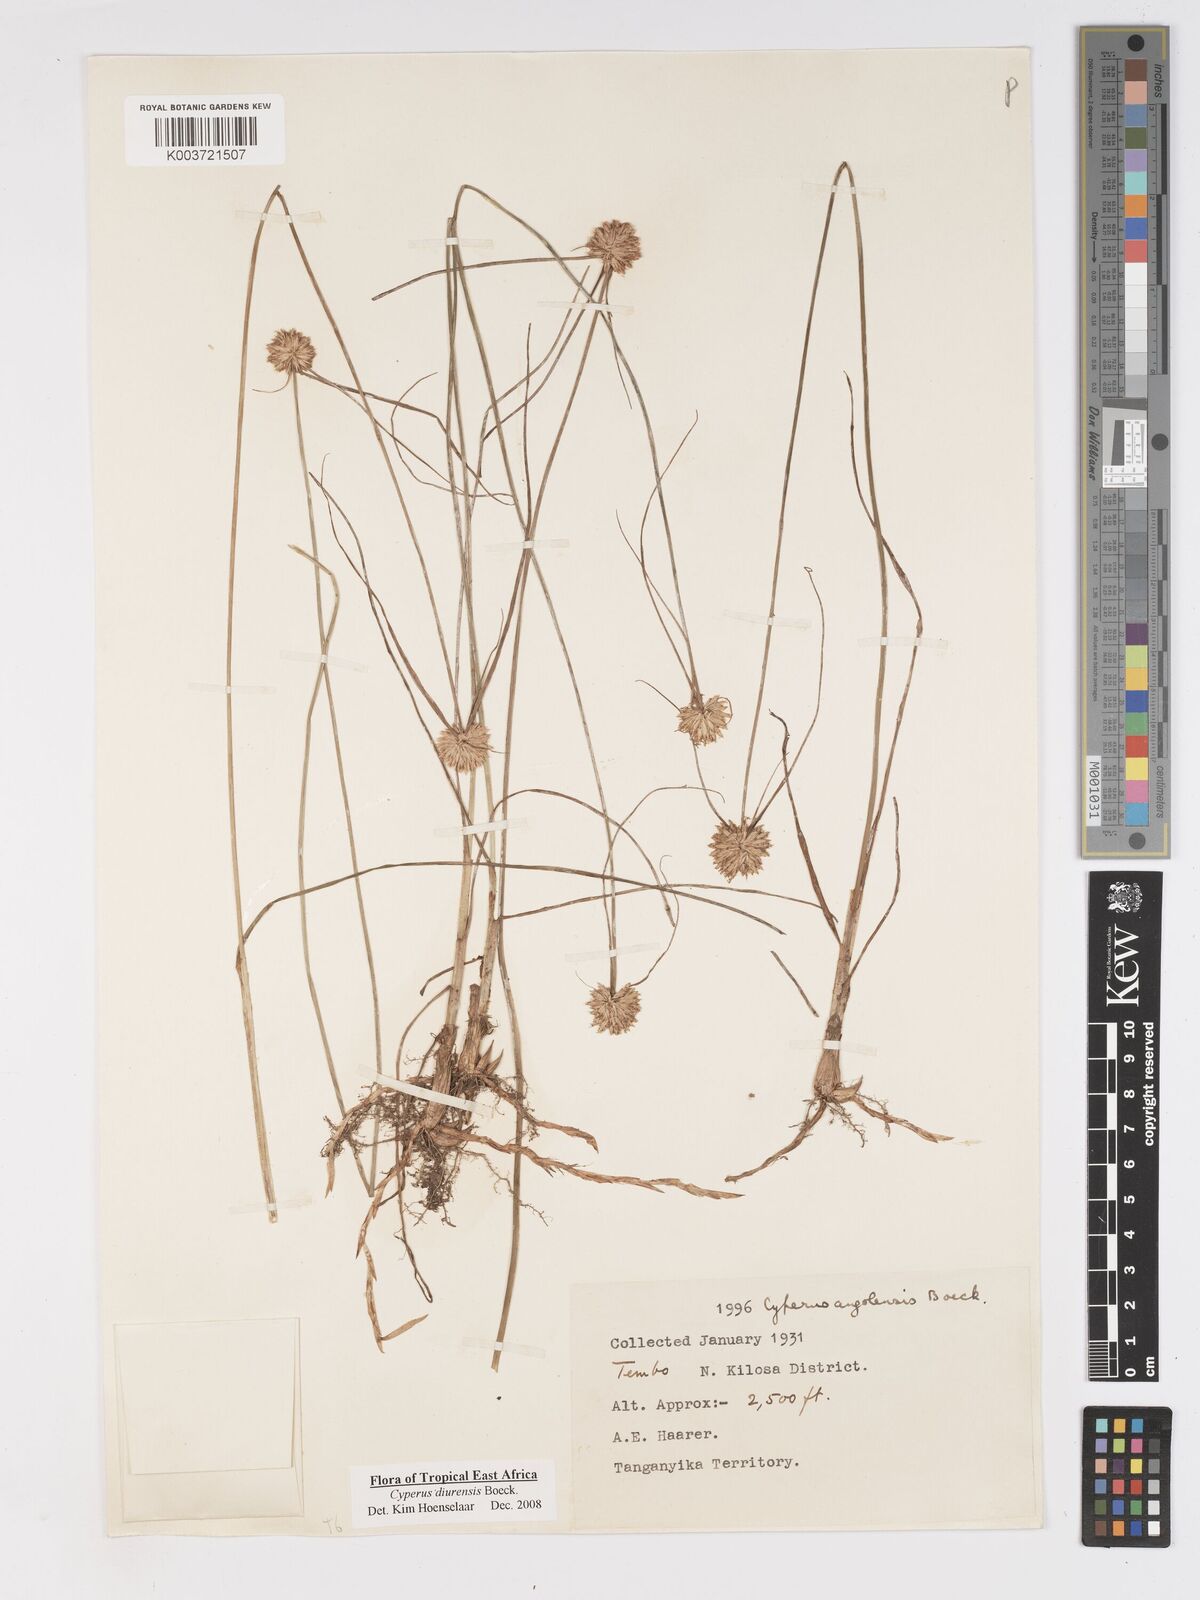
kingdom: Plantae
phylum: Tracheophyta
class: Liliopsida
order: Poales
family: Cyperaceae
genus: Cyperus
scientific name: Cyperus diurensis
